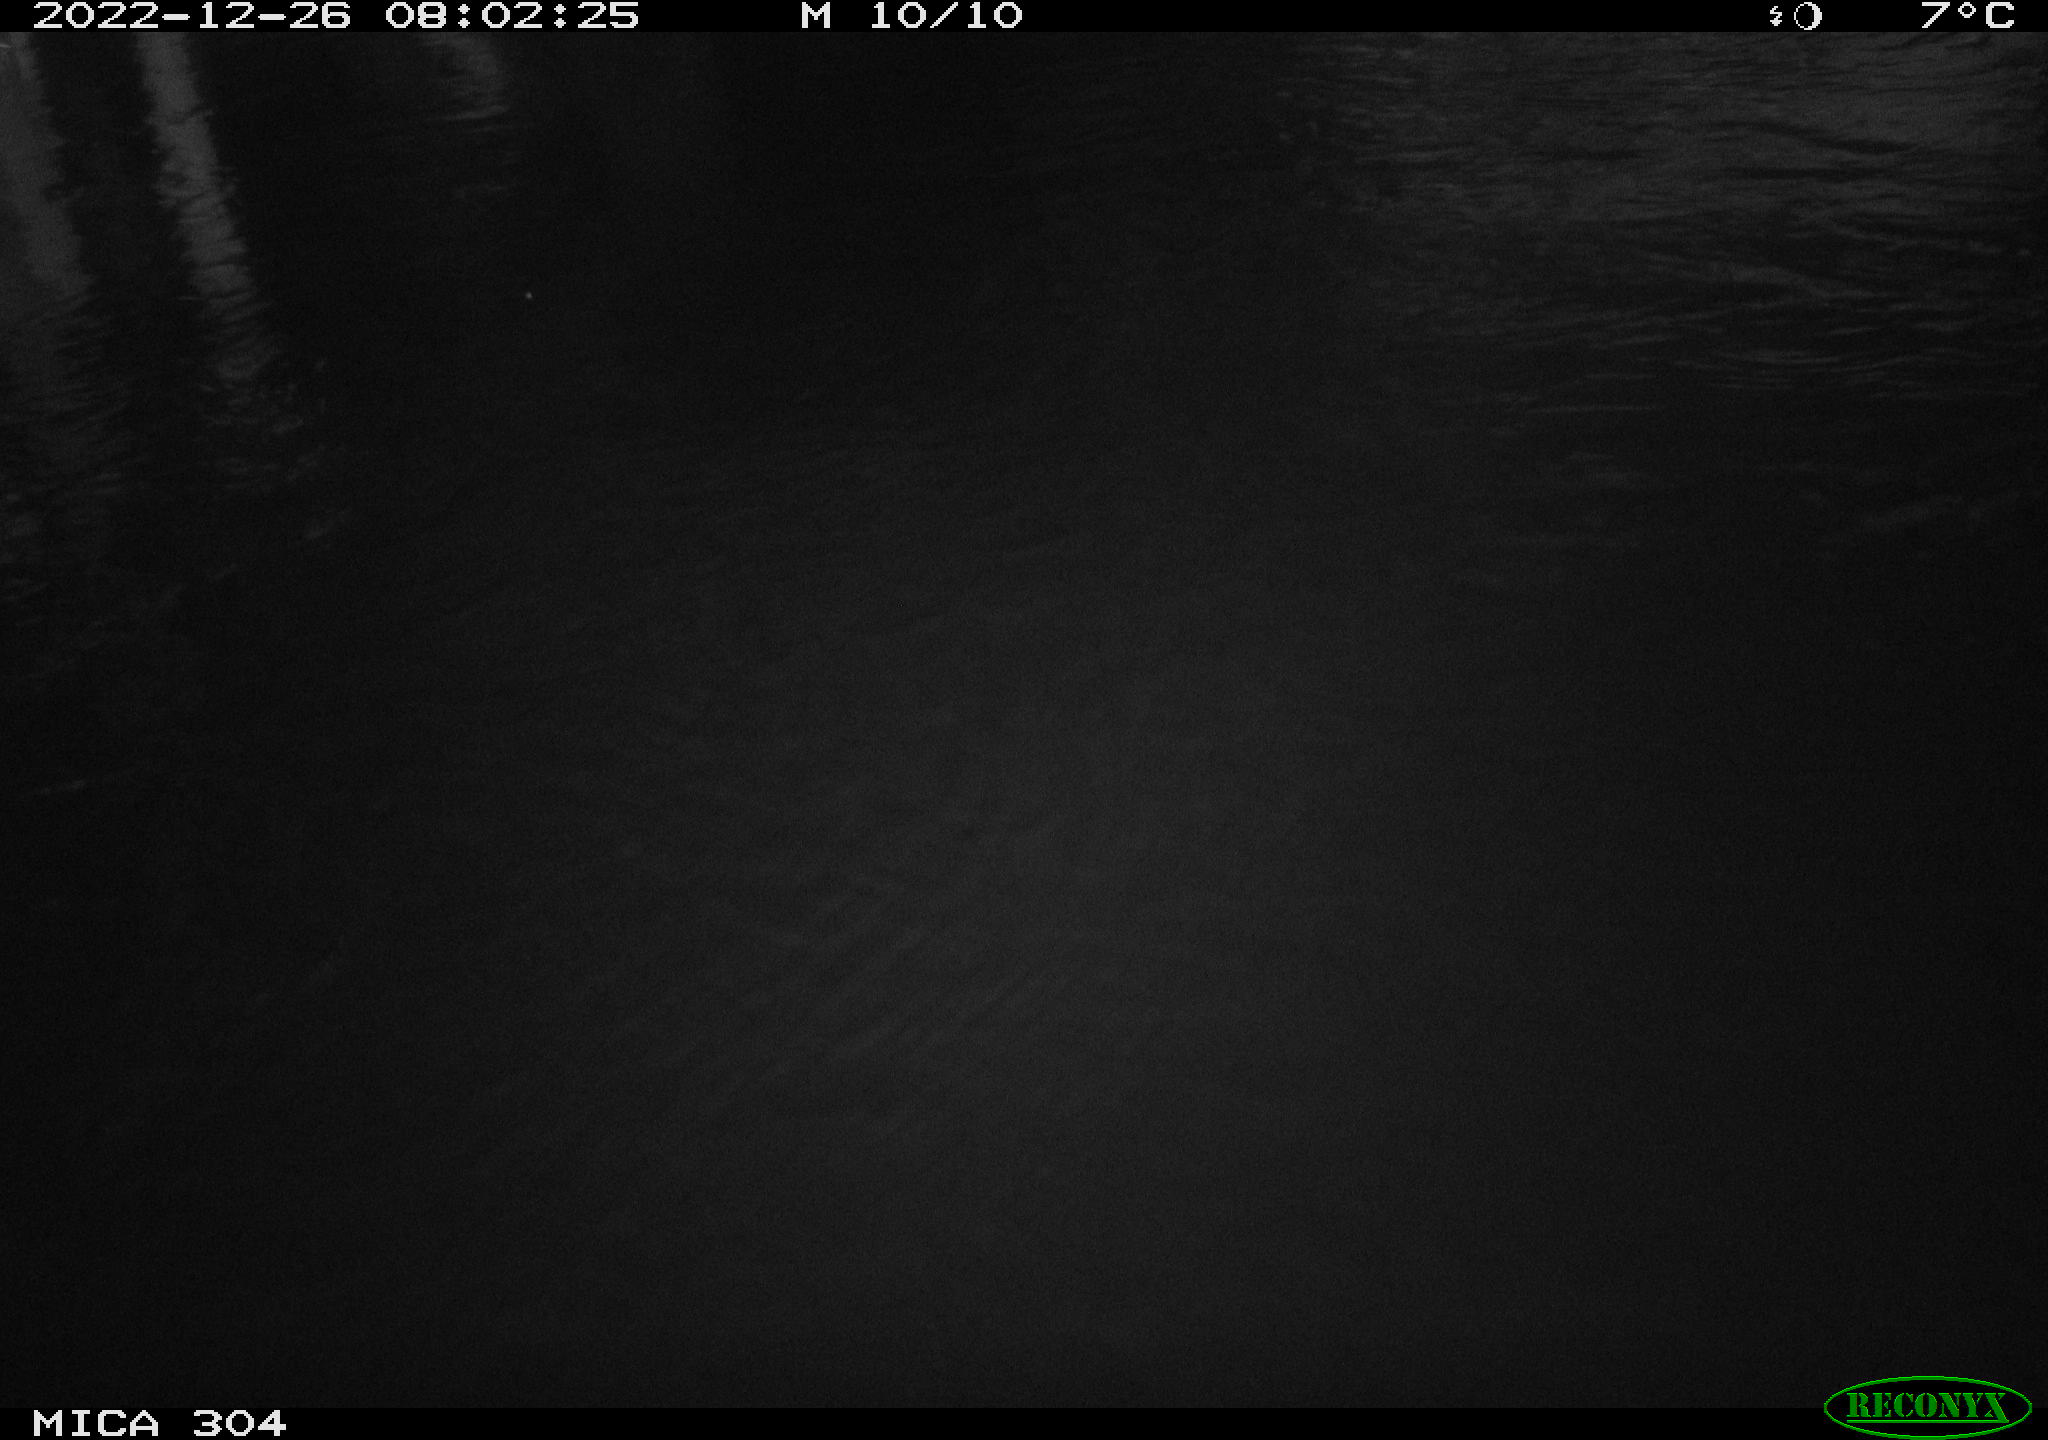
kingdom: Animalia
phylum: Chordata
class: Aves
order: Gruiformes
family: Rallidae
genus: Fulica
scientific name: Fulica atra
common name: Eurasian coot
